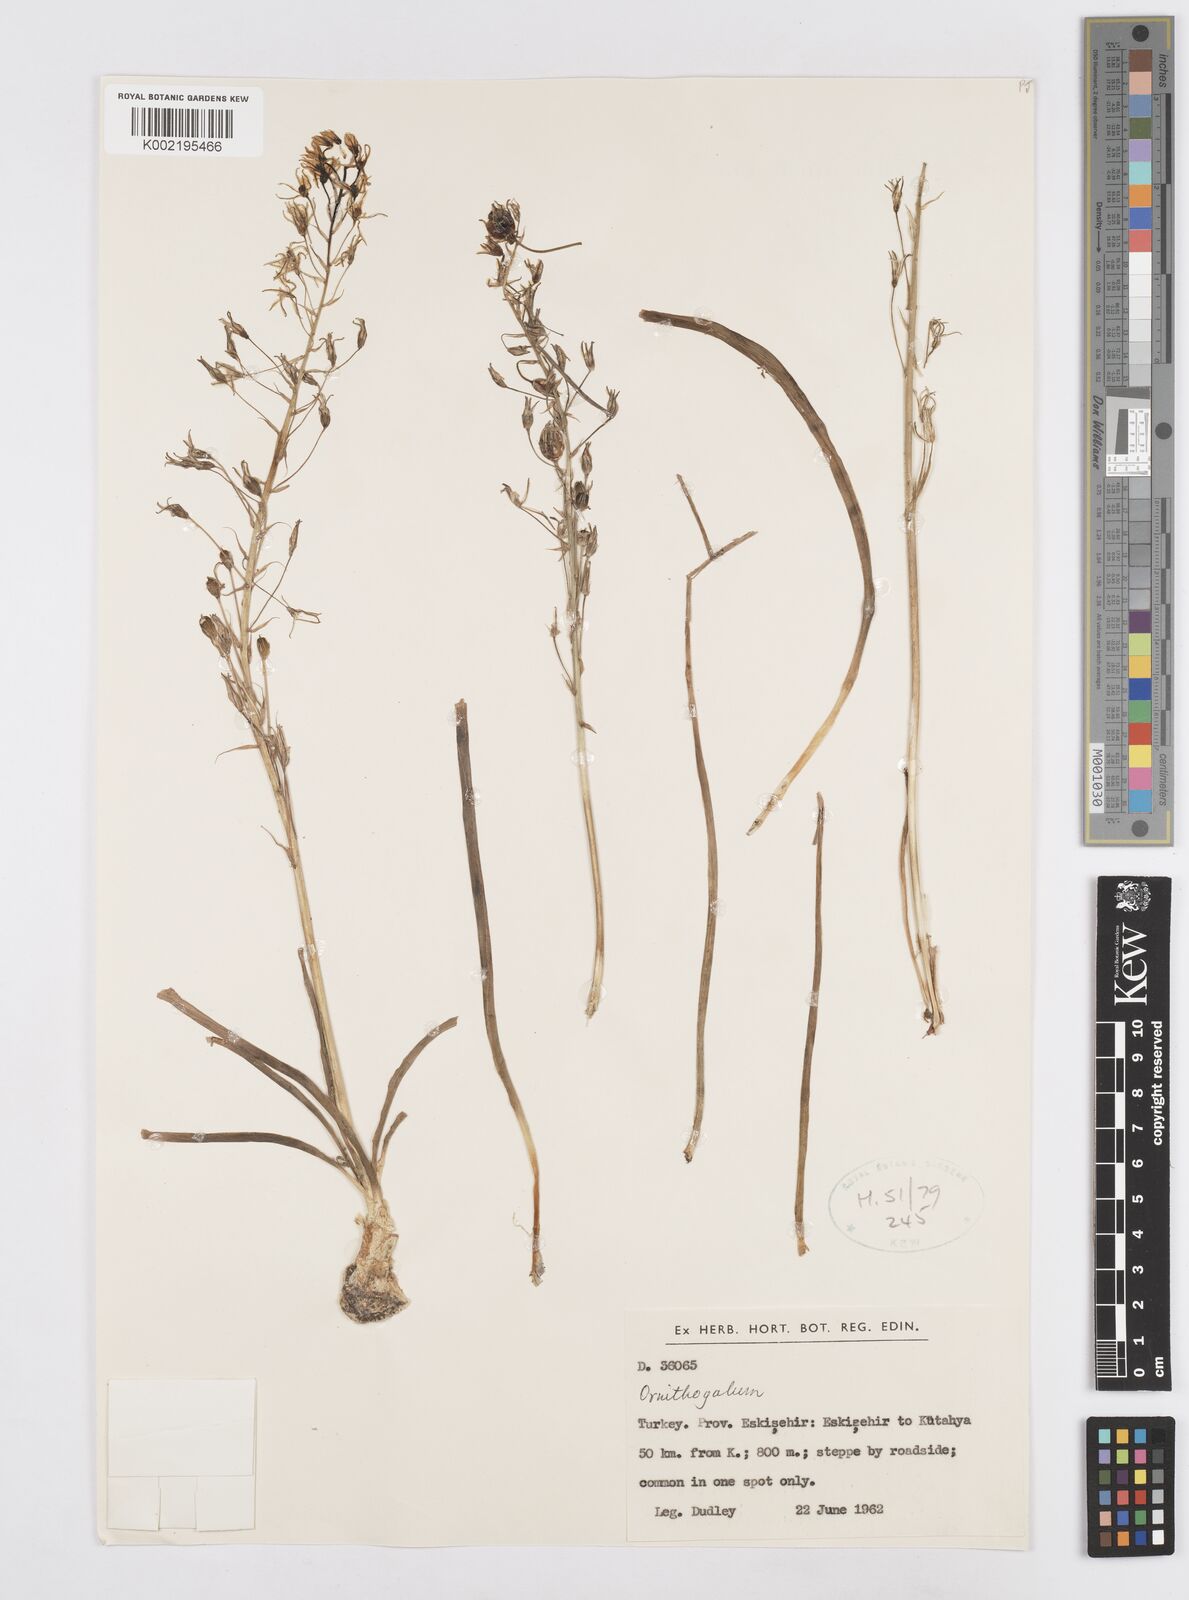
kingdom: Plantae
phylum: Tracheophyta
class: Liliopsida
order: Asparagales
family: Asparagaceae
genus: Ornithogalum
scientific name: Ornithogalum
